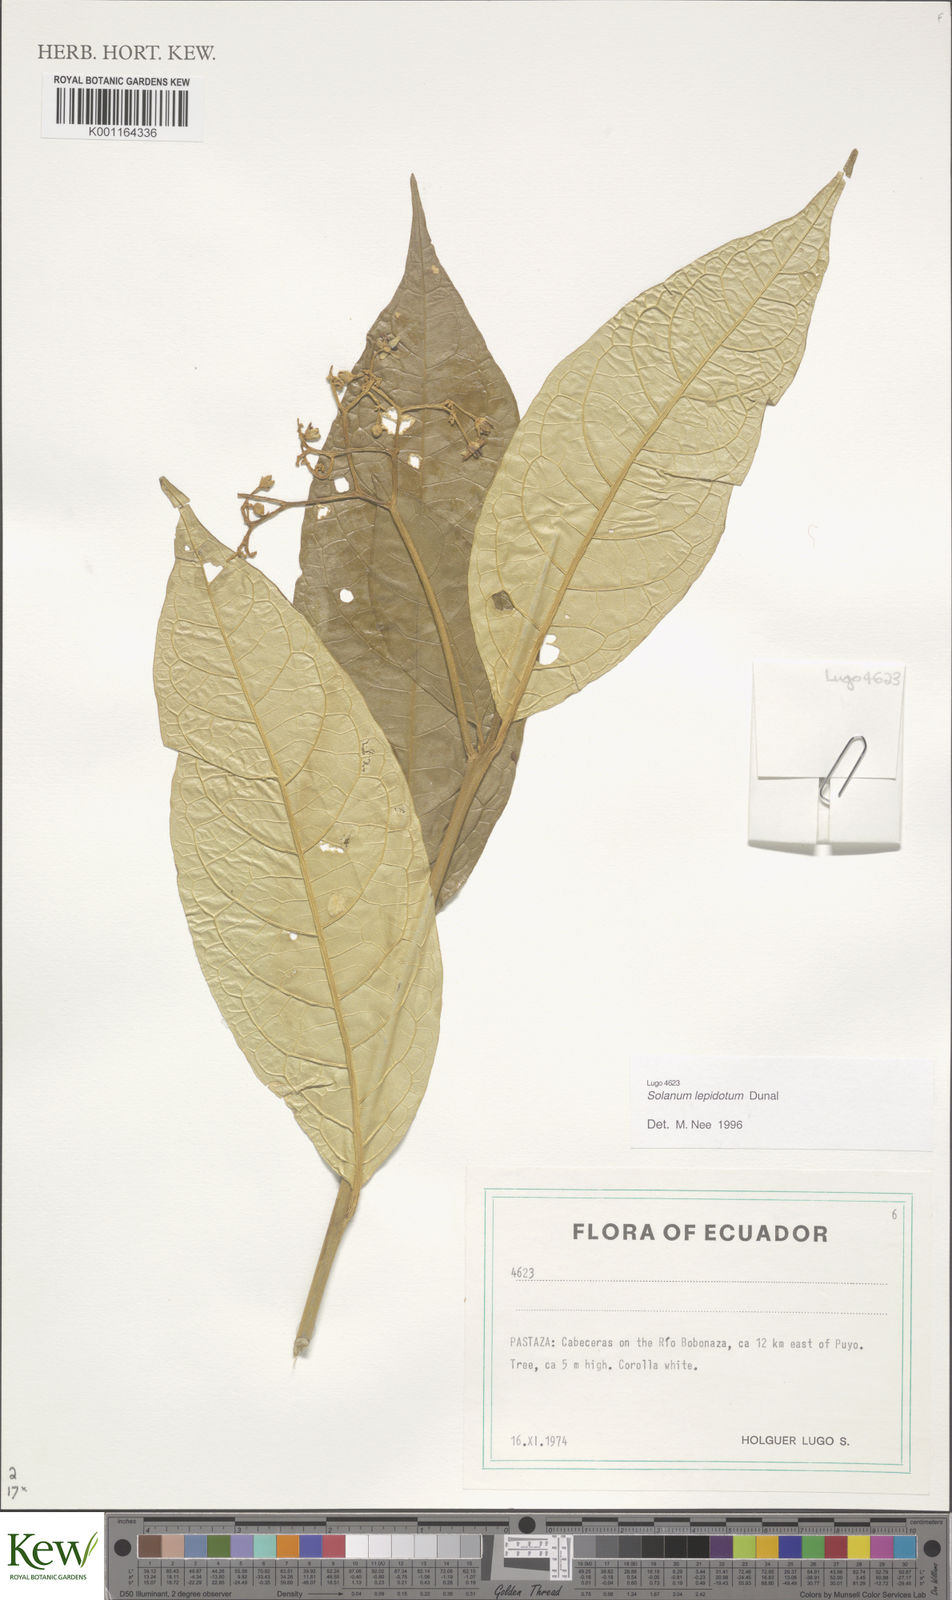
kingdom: Plantae
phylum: Tracheophyta
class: Magnoliopsida
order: Solanales
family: Solanaceae
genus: Solanum
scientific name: Solanum lepidotum
